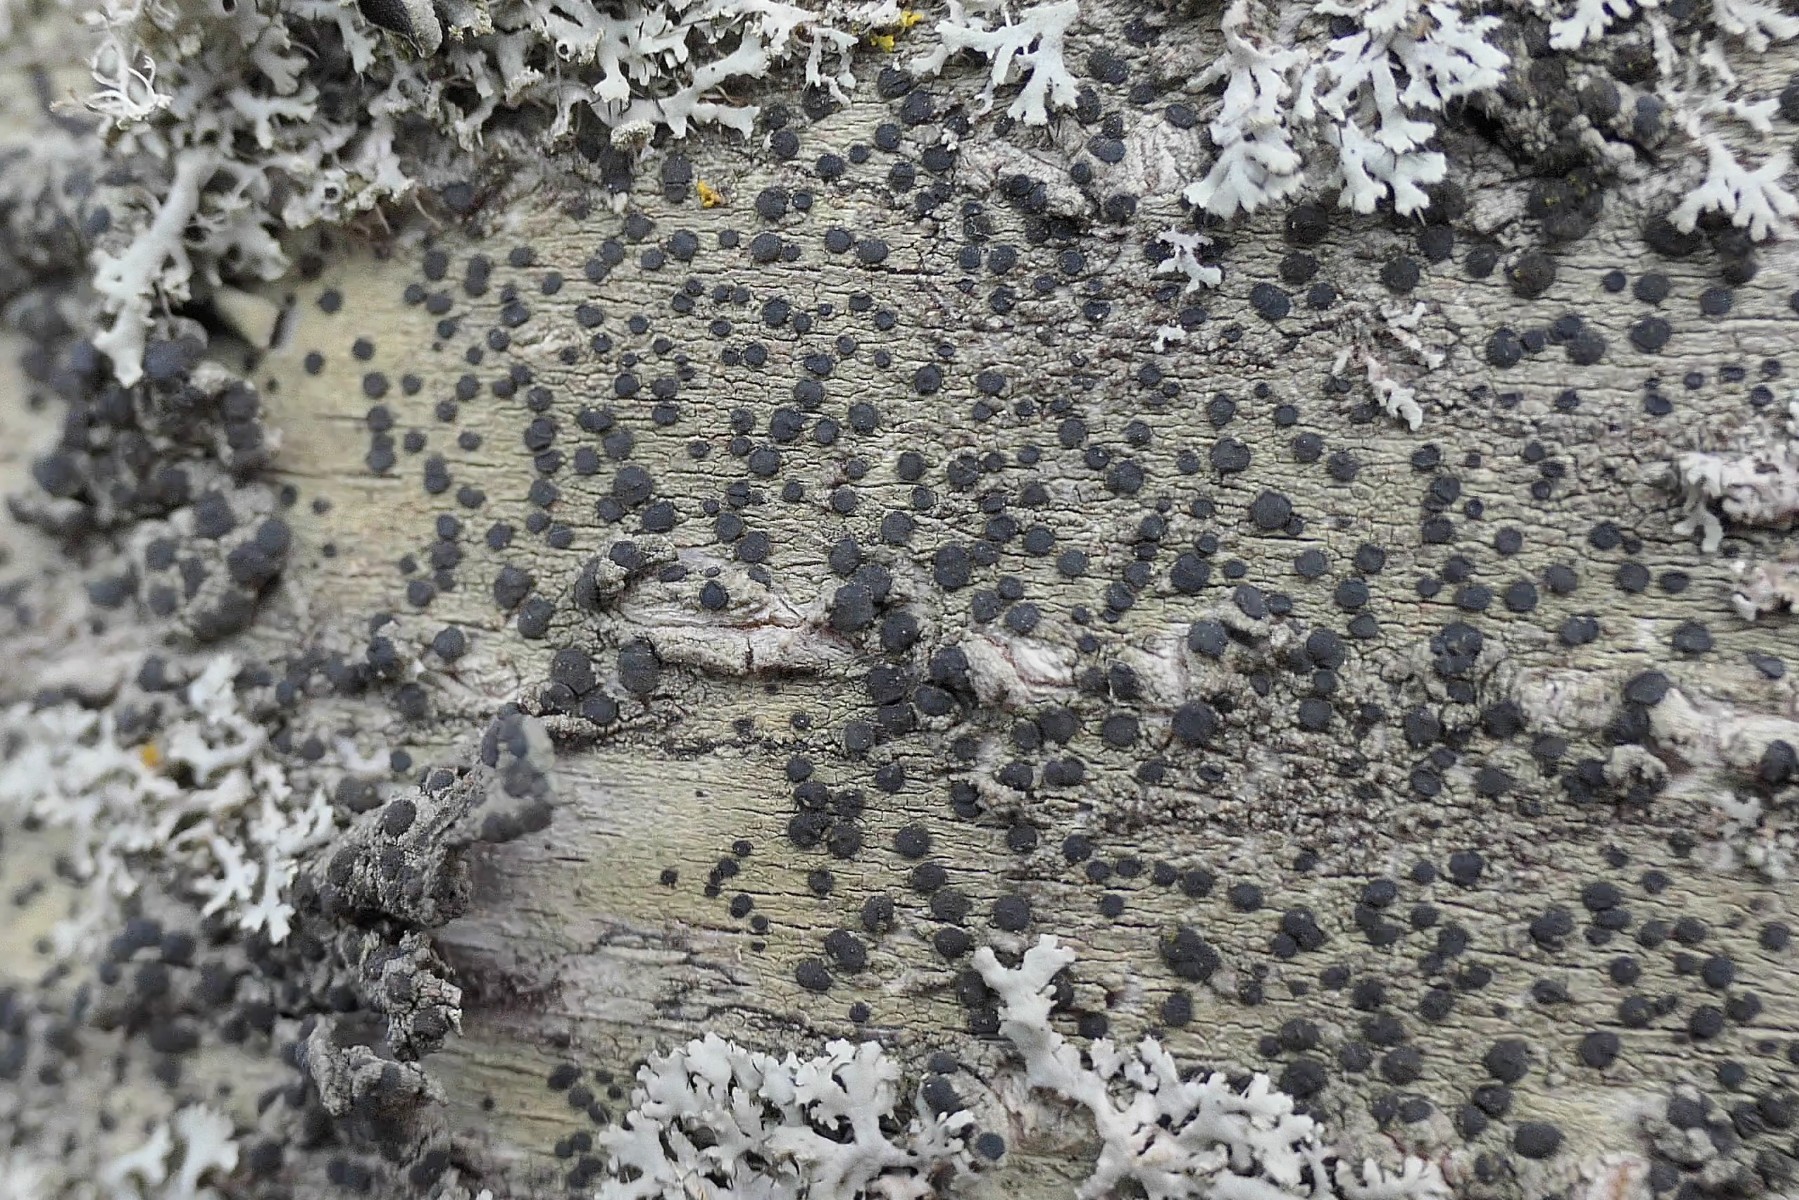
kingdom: Fungi
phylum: Ascomycota
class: Lecanoromycetes
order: Lecanorales
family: Lecanoraceae
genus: Lecidella
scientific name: Lecidella elaeochroma
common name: grågrøn skivelav
